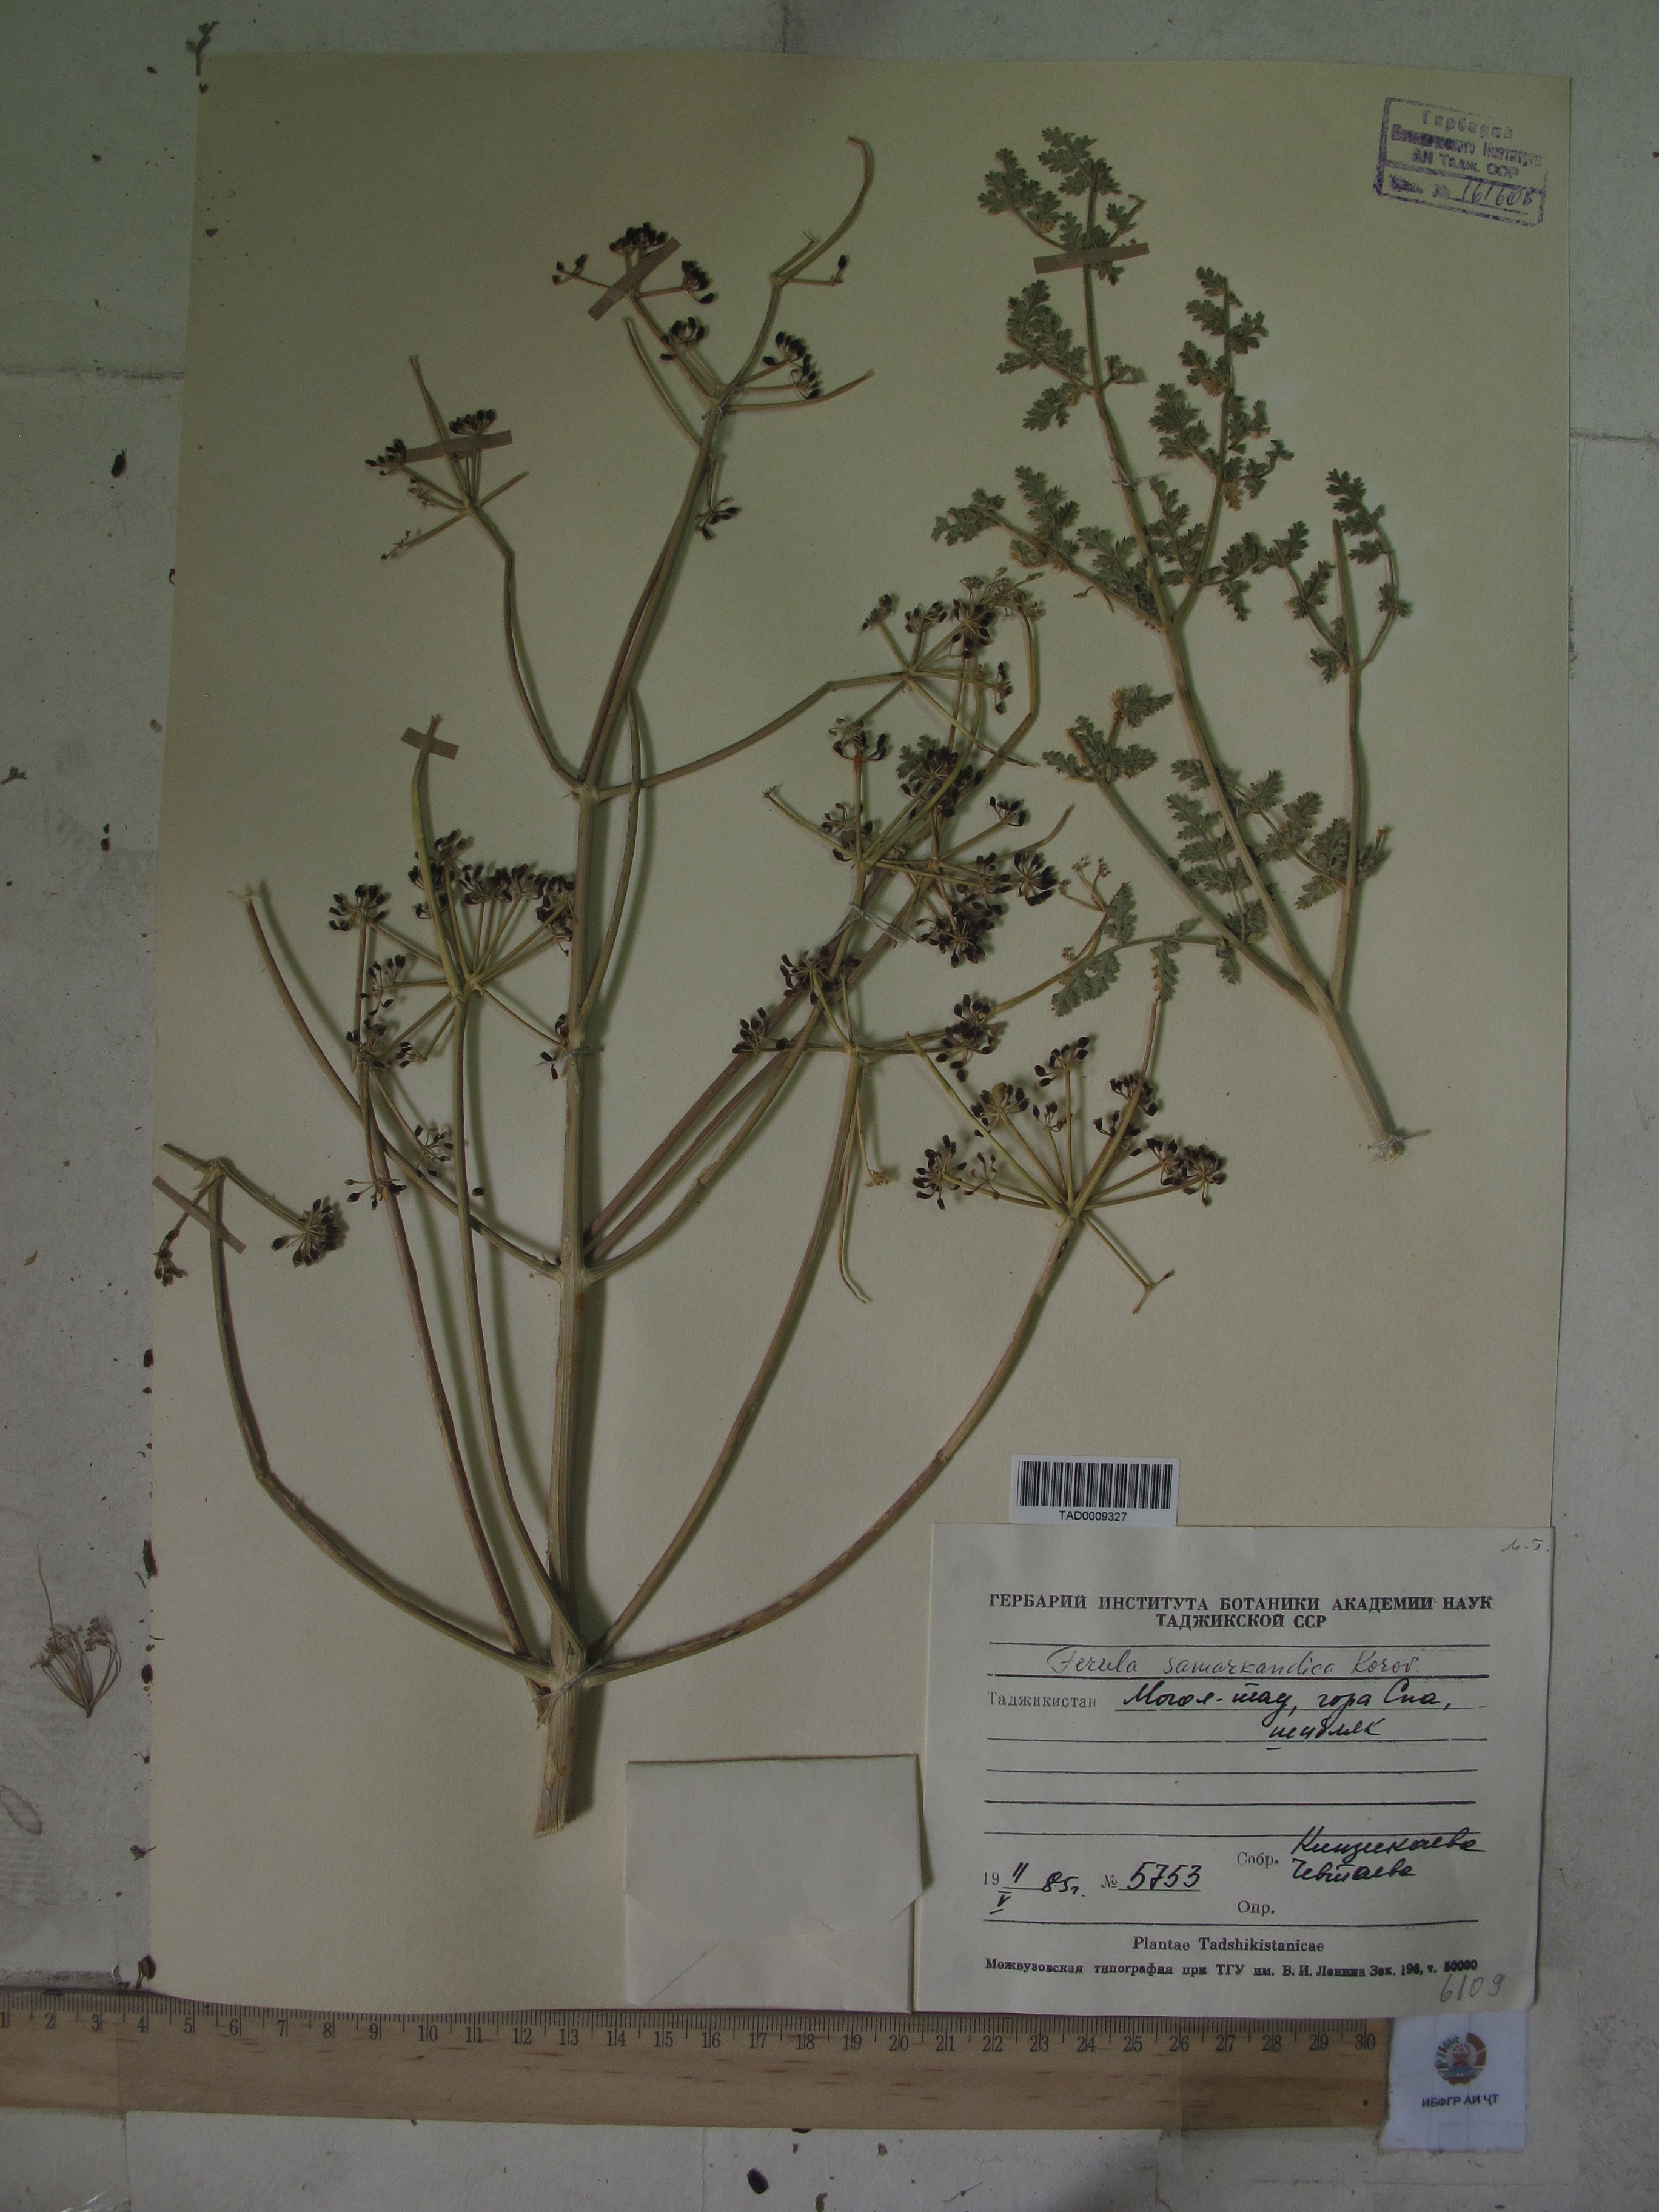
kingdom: Plantae
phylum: Tracheophyta
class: Magnoliopsida
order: Apiales
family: Apiaceae
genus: Ferula
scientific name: Ferula samarkandica
